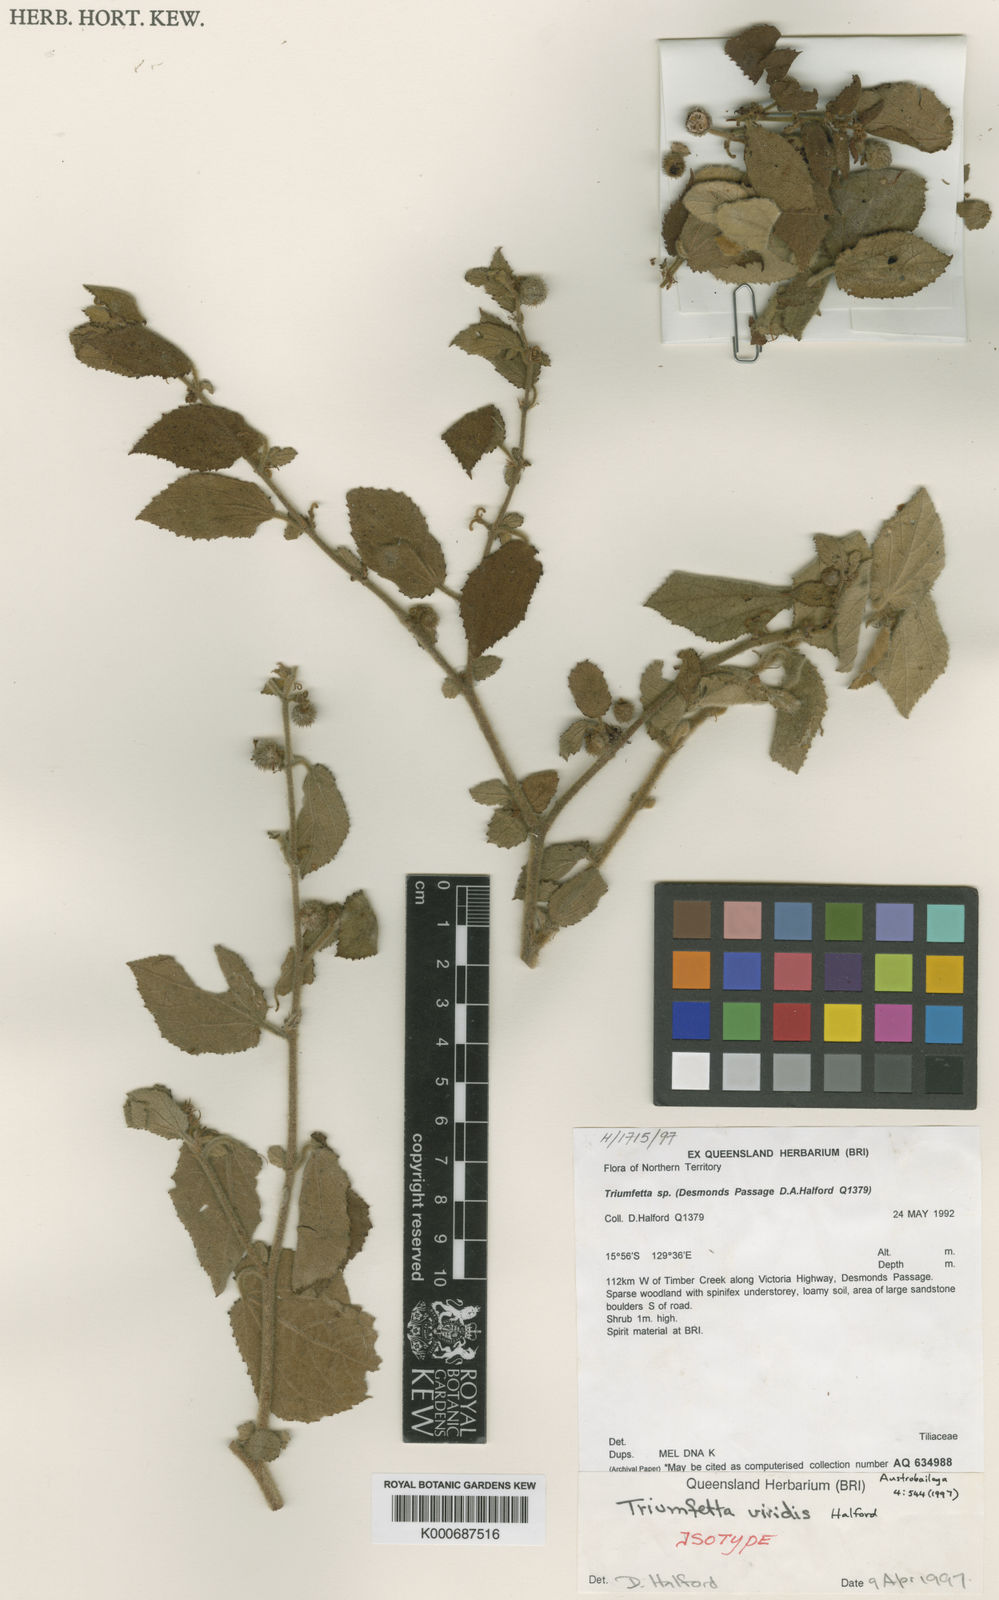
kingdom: Plantae
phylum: Tracheophyta
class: Magnoliopsida
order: Malvales
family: Malvaceae
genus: Triumfetta
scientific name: Triumfetta viridis
